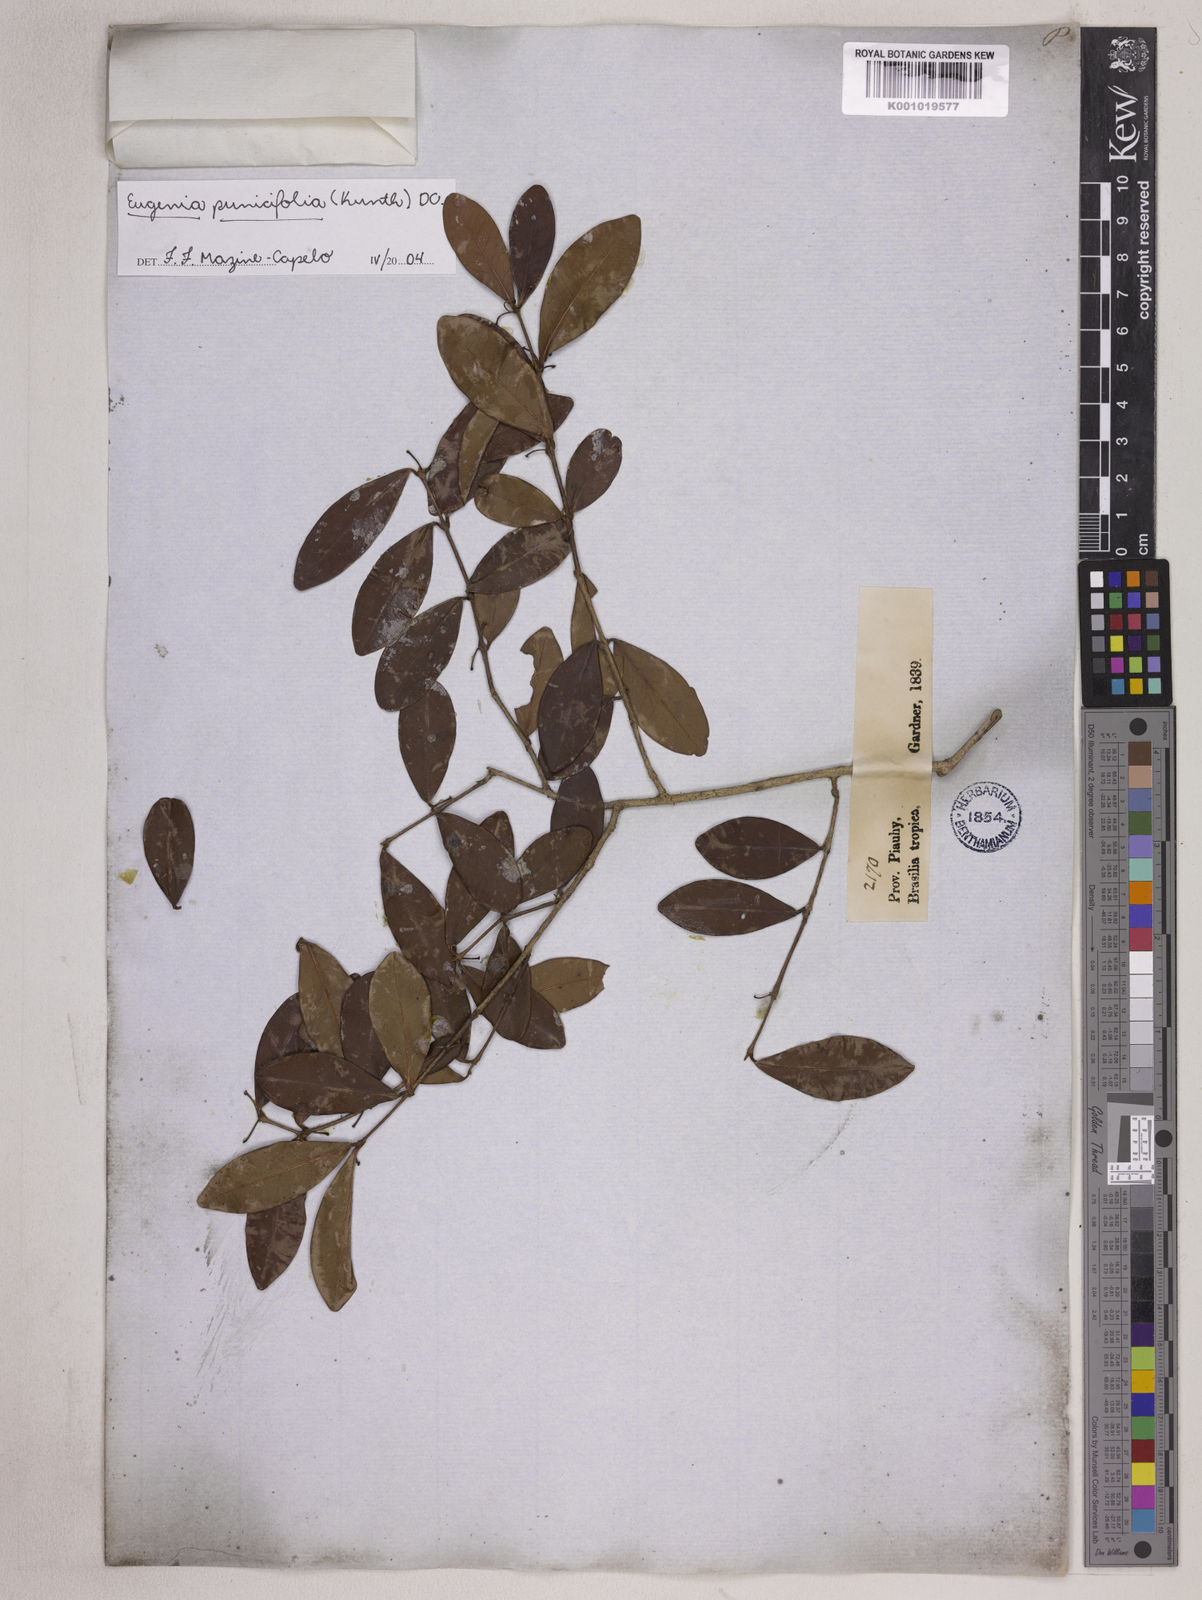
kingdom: Plantae
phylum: Tracheophyta
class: Magnoliopsida
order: Myrtales
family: Myrtaceae
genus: Eugenia
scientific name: Eugenia punicifolia
